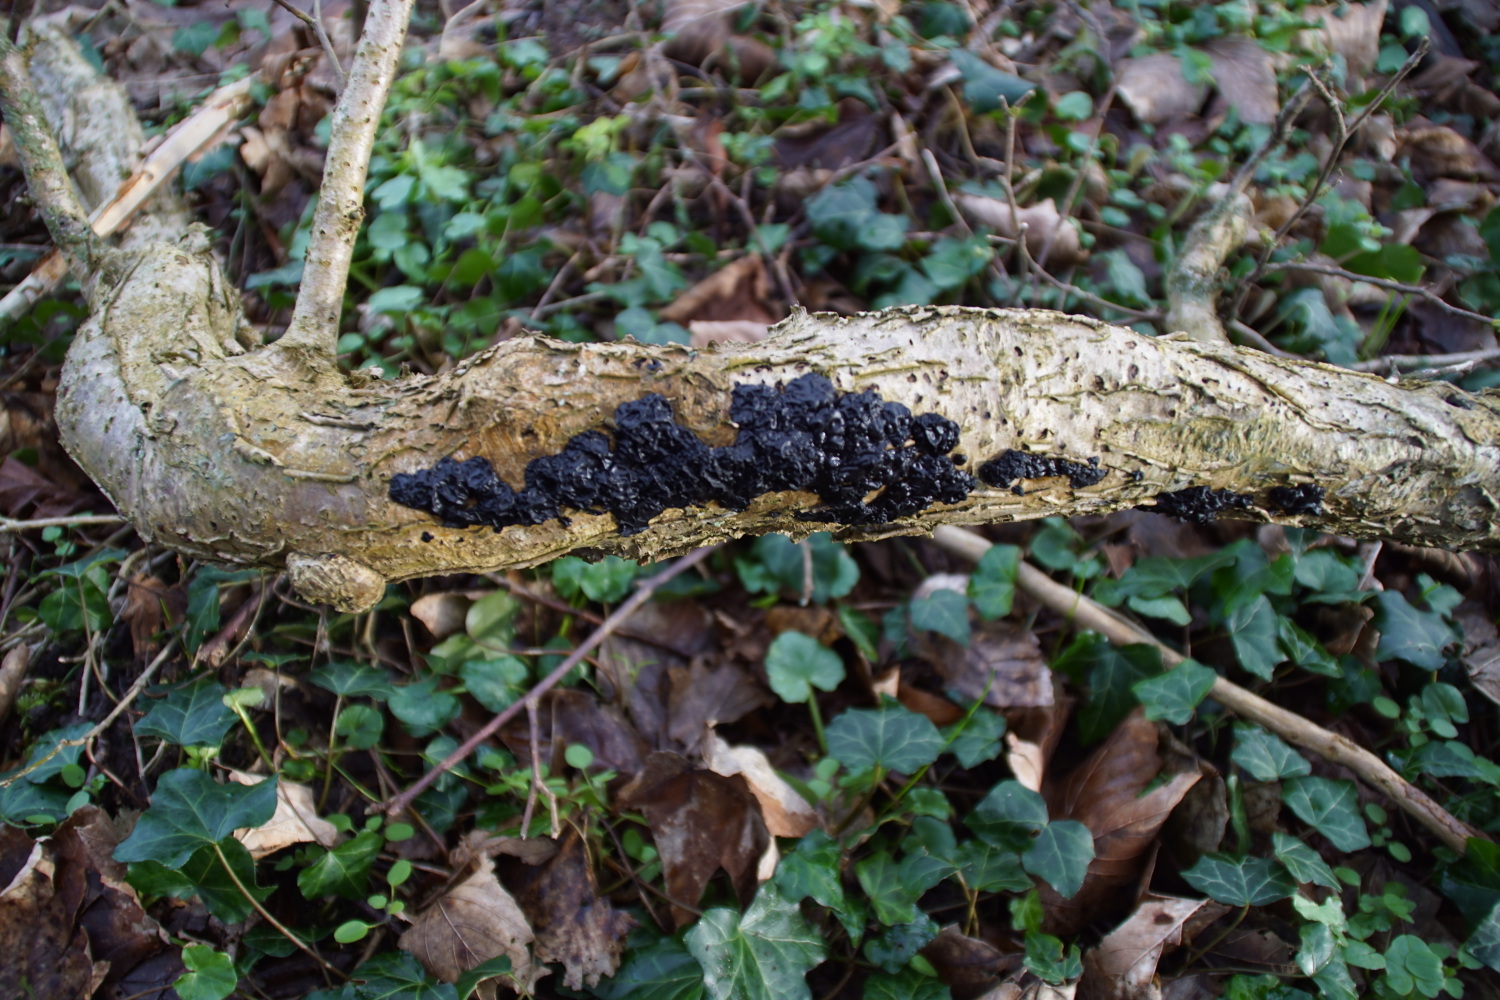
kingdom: Fungi
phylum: Basidiomycota
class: Agaricomycetes
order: Auriculariales
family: Auriculariaceae
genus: Exidia
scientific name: Exidia nigricans
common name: almindelig bævretop
